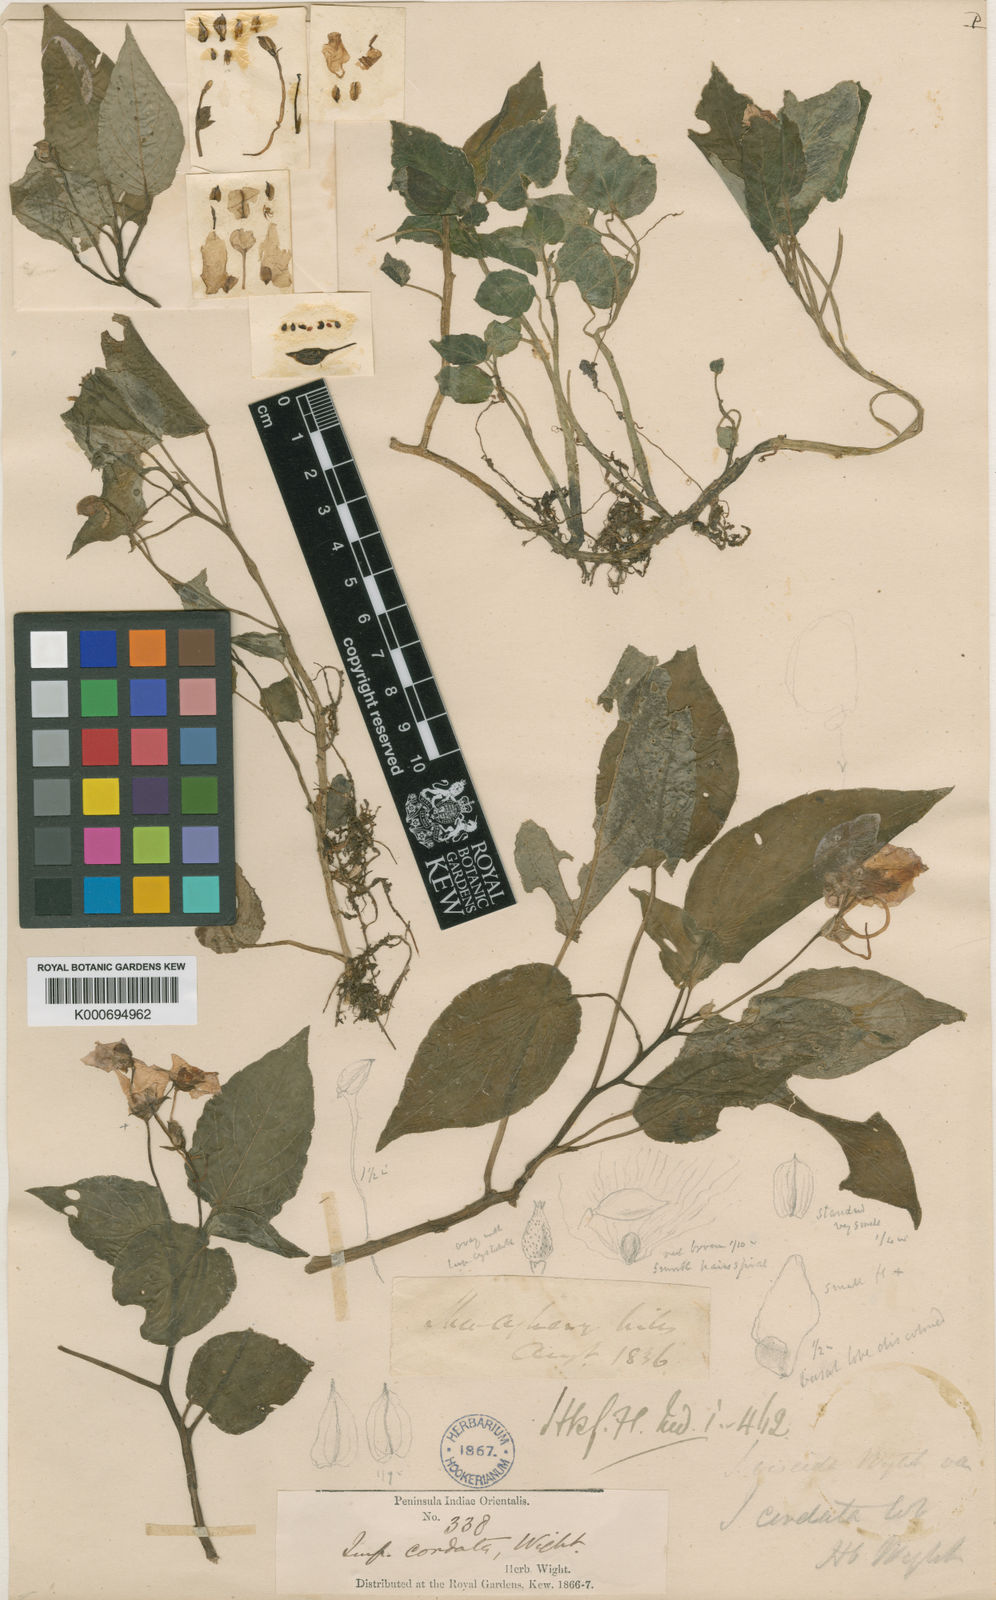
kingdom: Plantae
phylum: Tracheophyta
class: Magnoliopsida
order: Ericales
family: Balsaminaceae
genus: Impatiens
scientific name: Impatiens cordata
